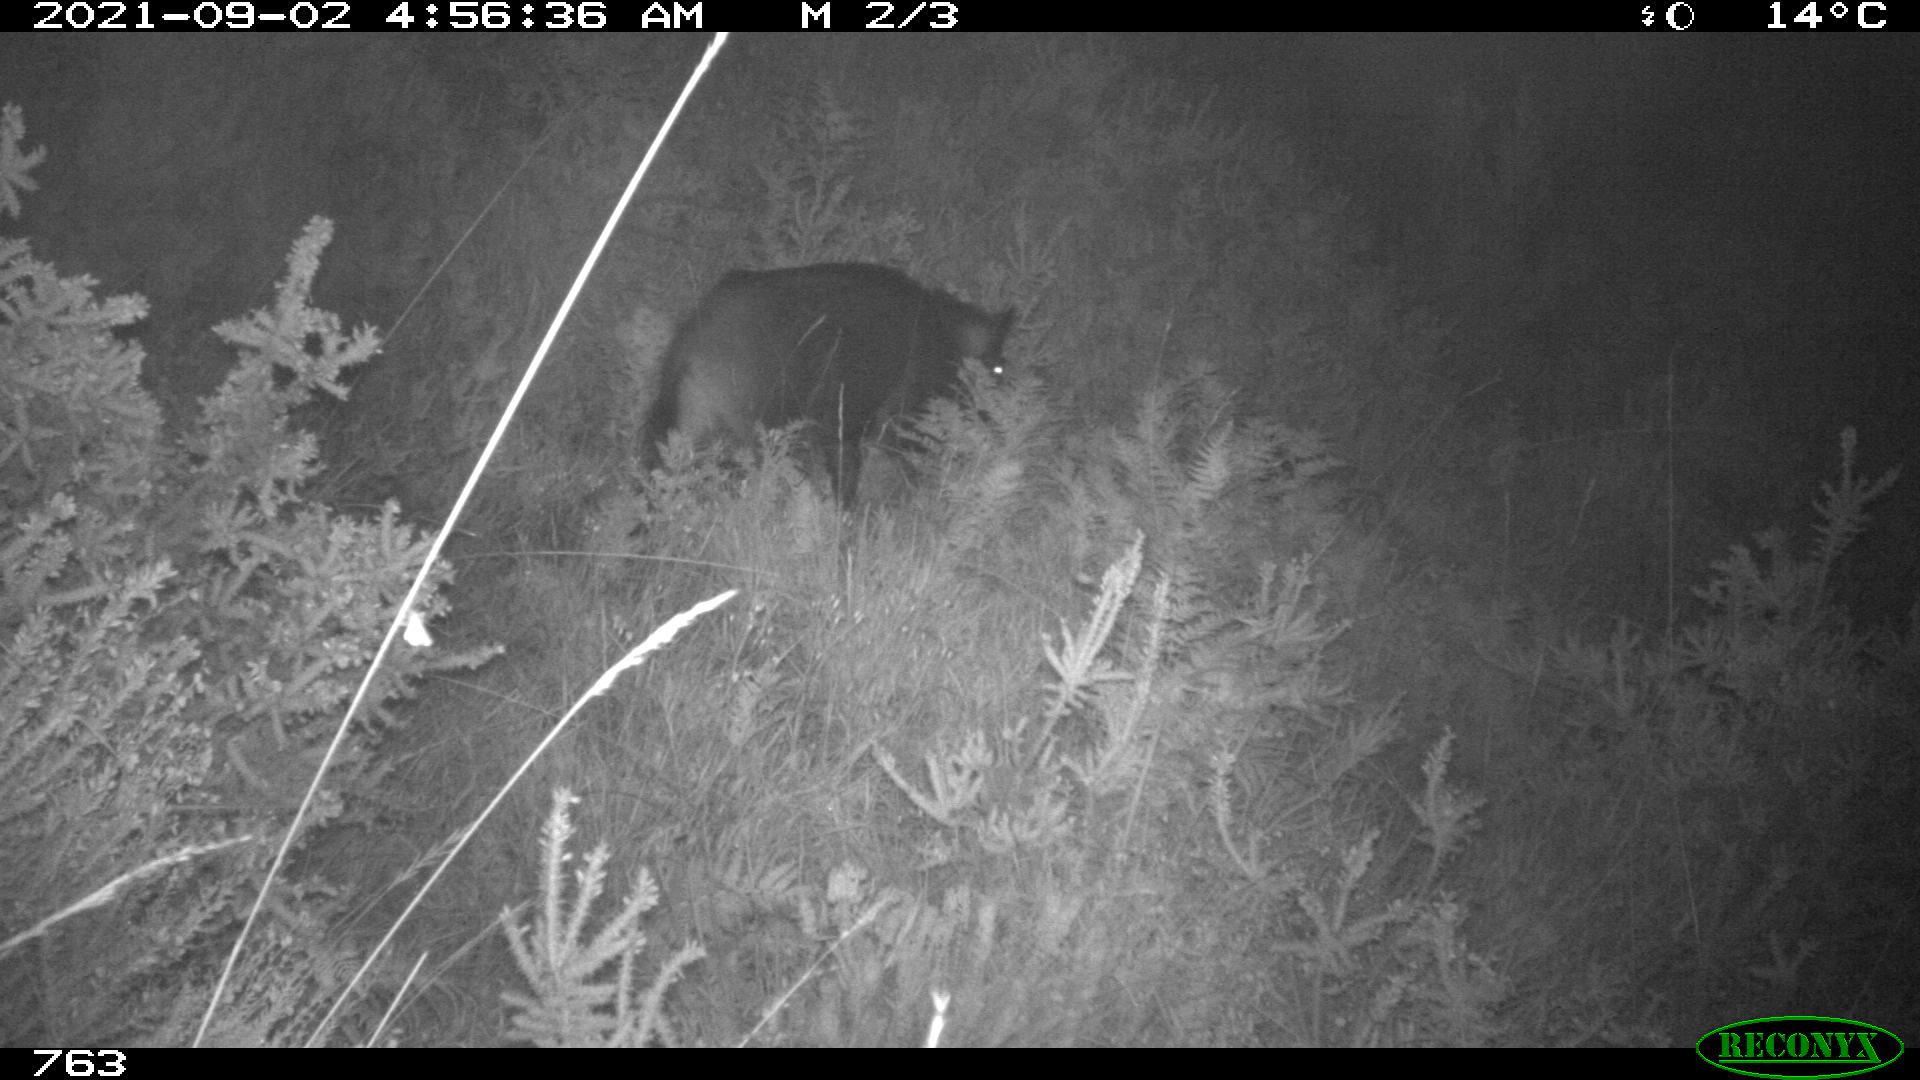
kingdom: Animalia
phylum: Chordata
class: Mammalia
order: Artiodactyla
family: Suidae
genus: Sus
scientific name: Sus scrofa
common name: Wild boar
